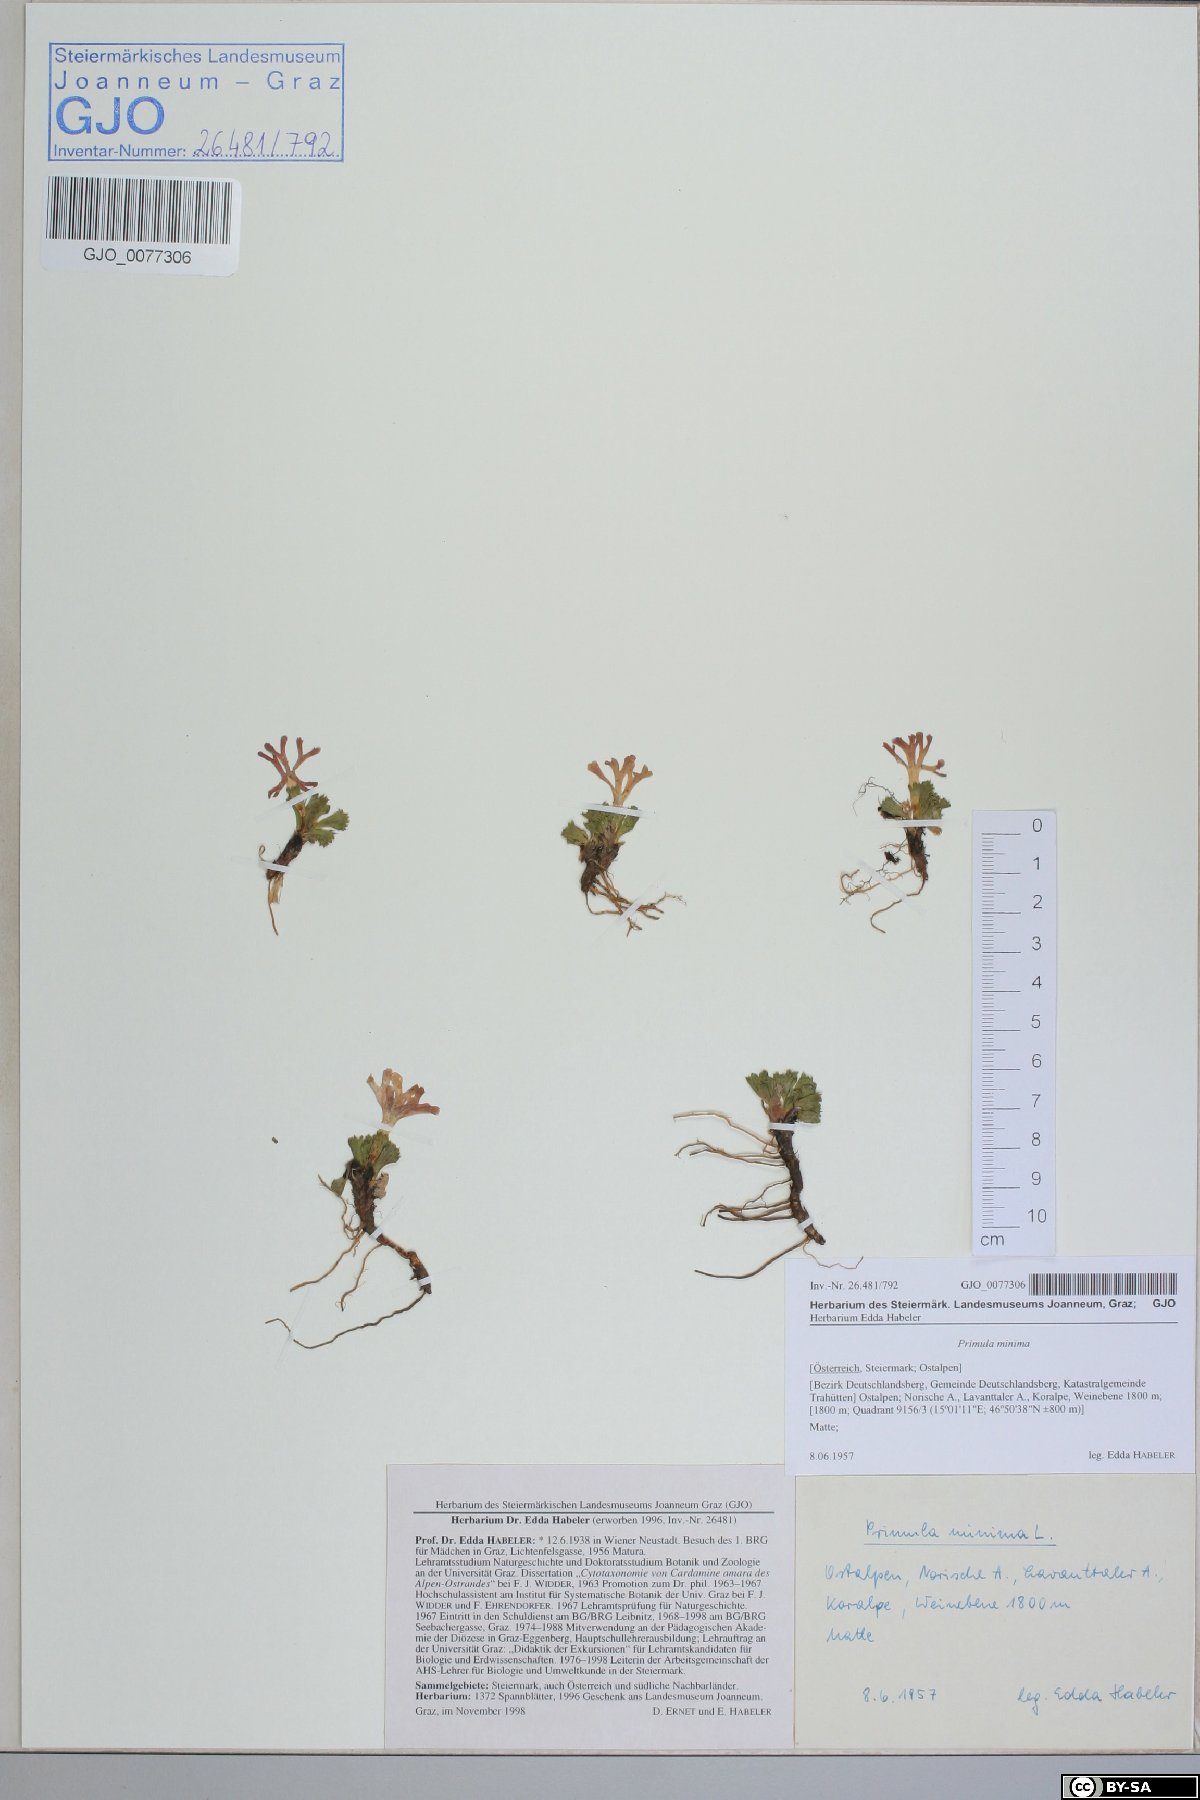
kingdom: Plantae
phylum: Tracheophyta
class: Magnoliopsida
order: Ericales
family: Primulaceae
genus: Primula
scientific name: Primula minima
